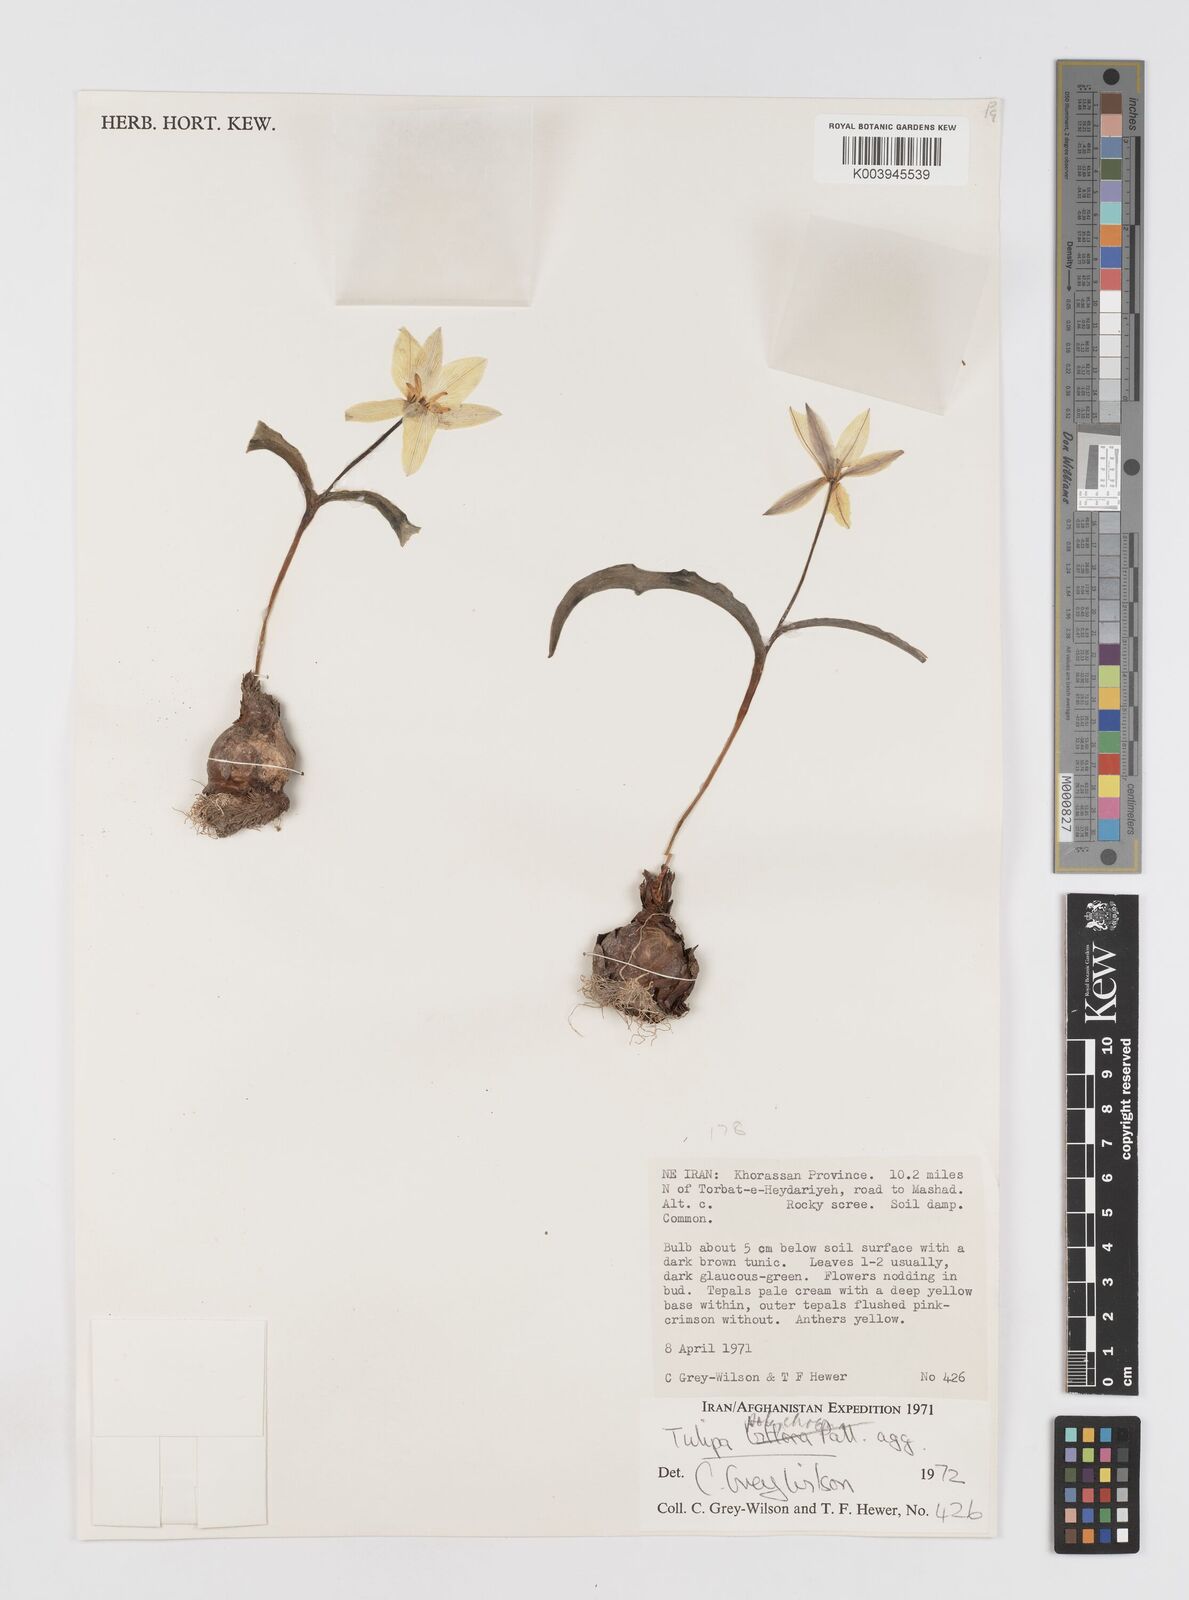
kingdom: Plantae
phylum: Tracheophyta
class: Liliopsida
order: Liliales
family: Liliaceae
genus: Tulipa
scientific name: Tulipa biflora
